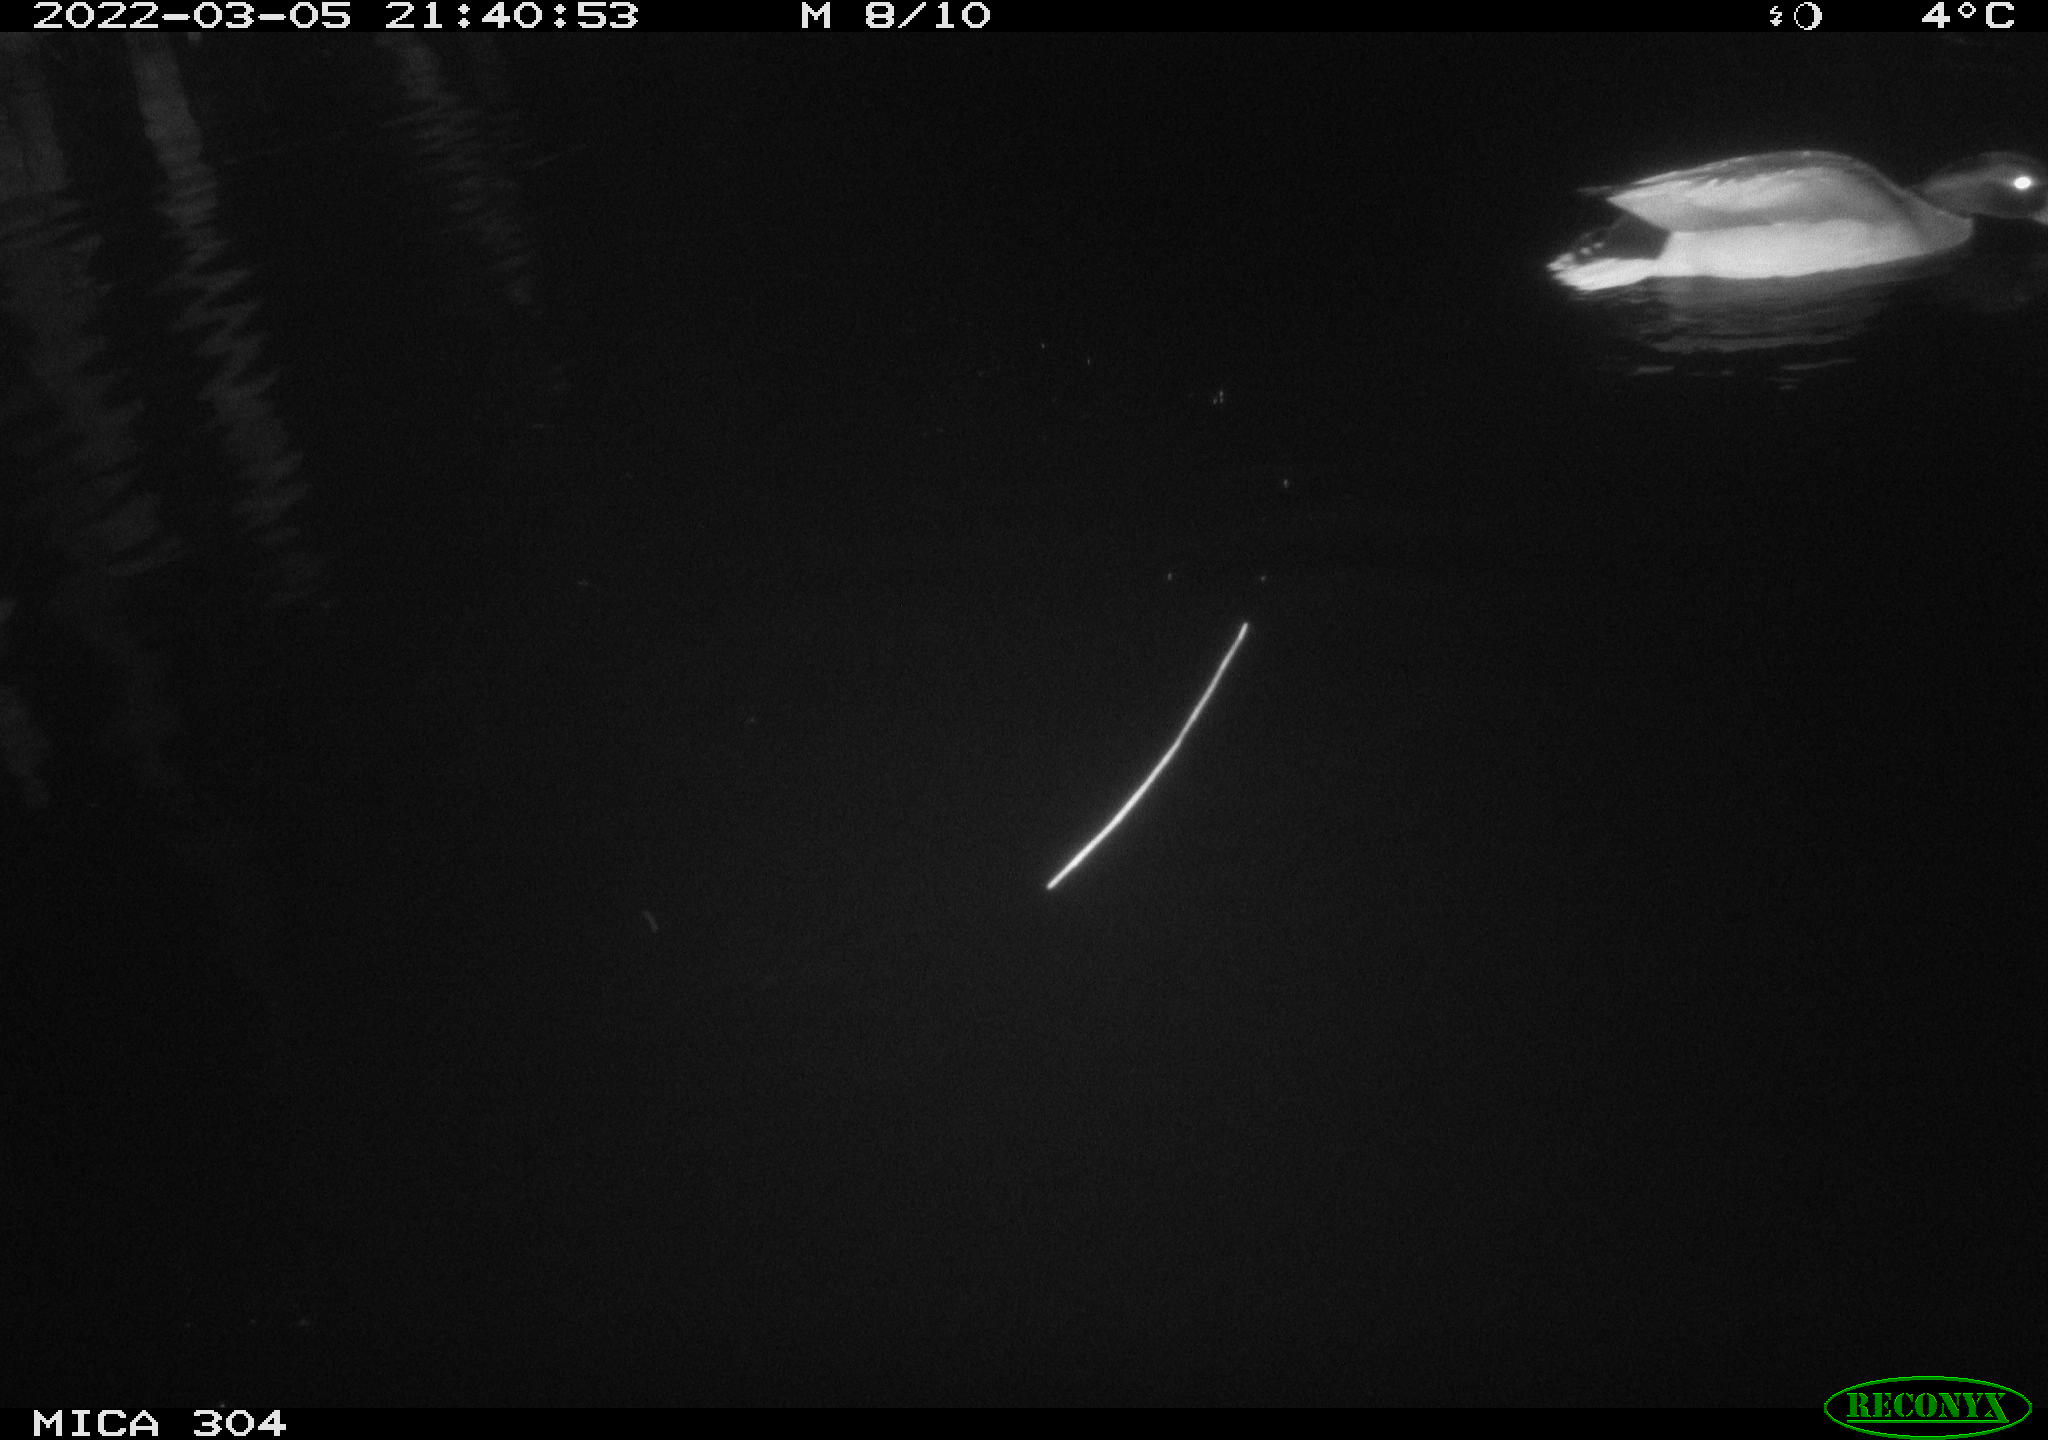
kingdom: Animalia
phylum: Chordata
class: Aves
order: Anseriformes
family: Anatidae
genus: Anas
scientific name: Anas platyrhynchos
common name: Mallard
